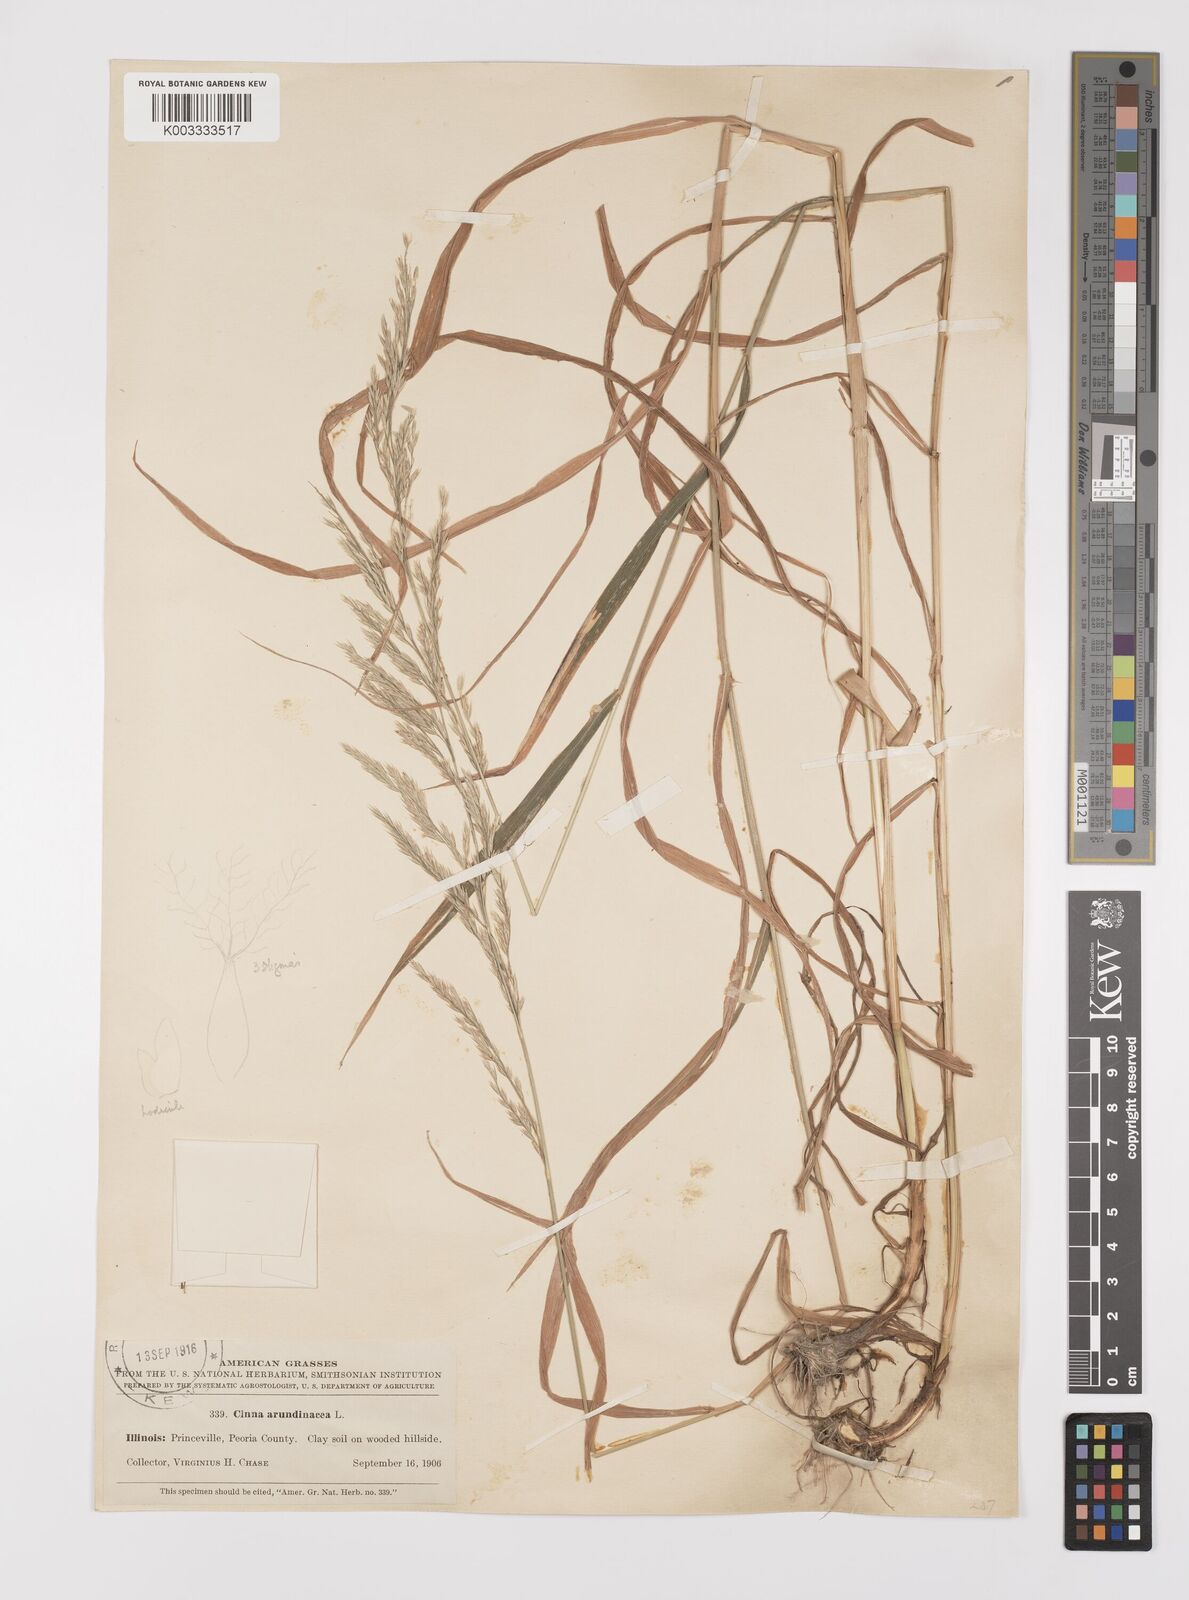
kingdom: Plantae
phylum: Tracheophyta
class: Liliopsida
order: Poales
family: Poaceae
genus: Cinna
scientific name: Cinna
